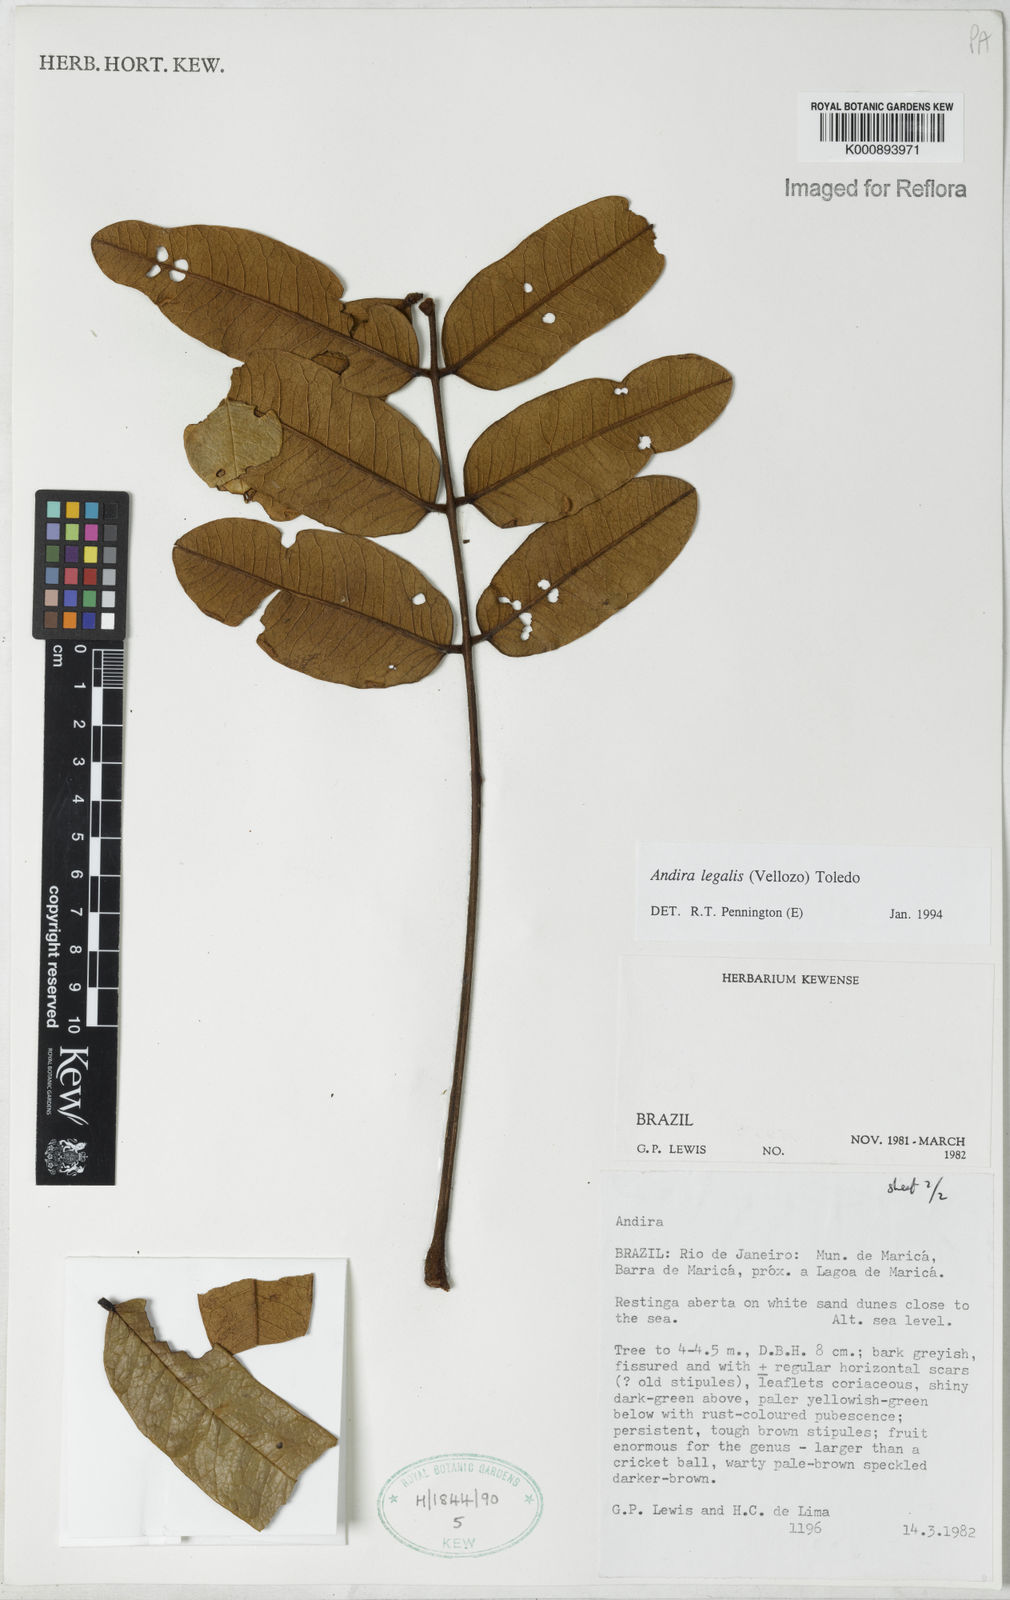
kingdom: Plantae
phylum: Tracheophyta
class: Magnoliopsida
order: Fabales
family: Fabaceae
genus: Andira
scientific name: Andira legalis
